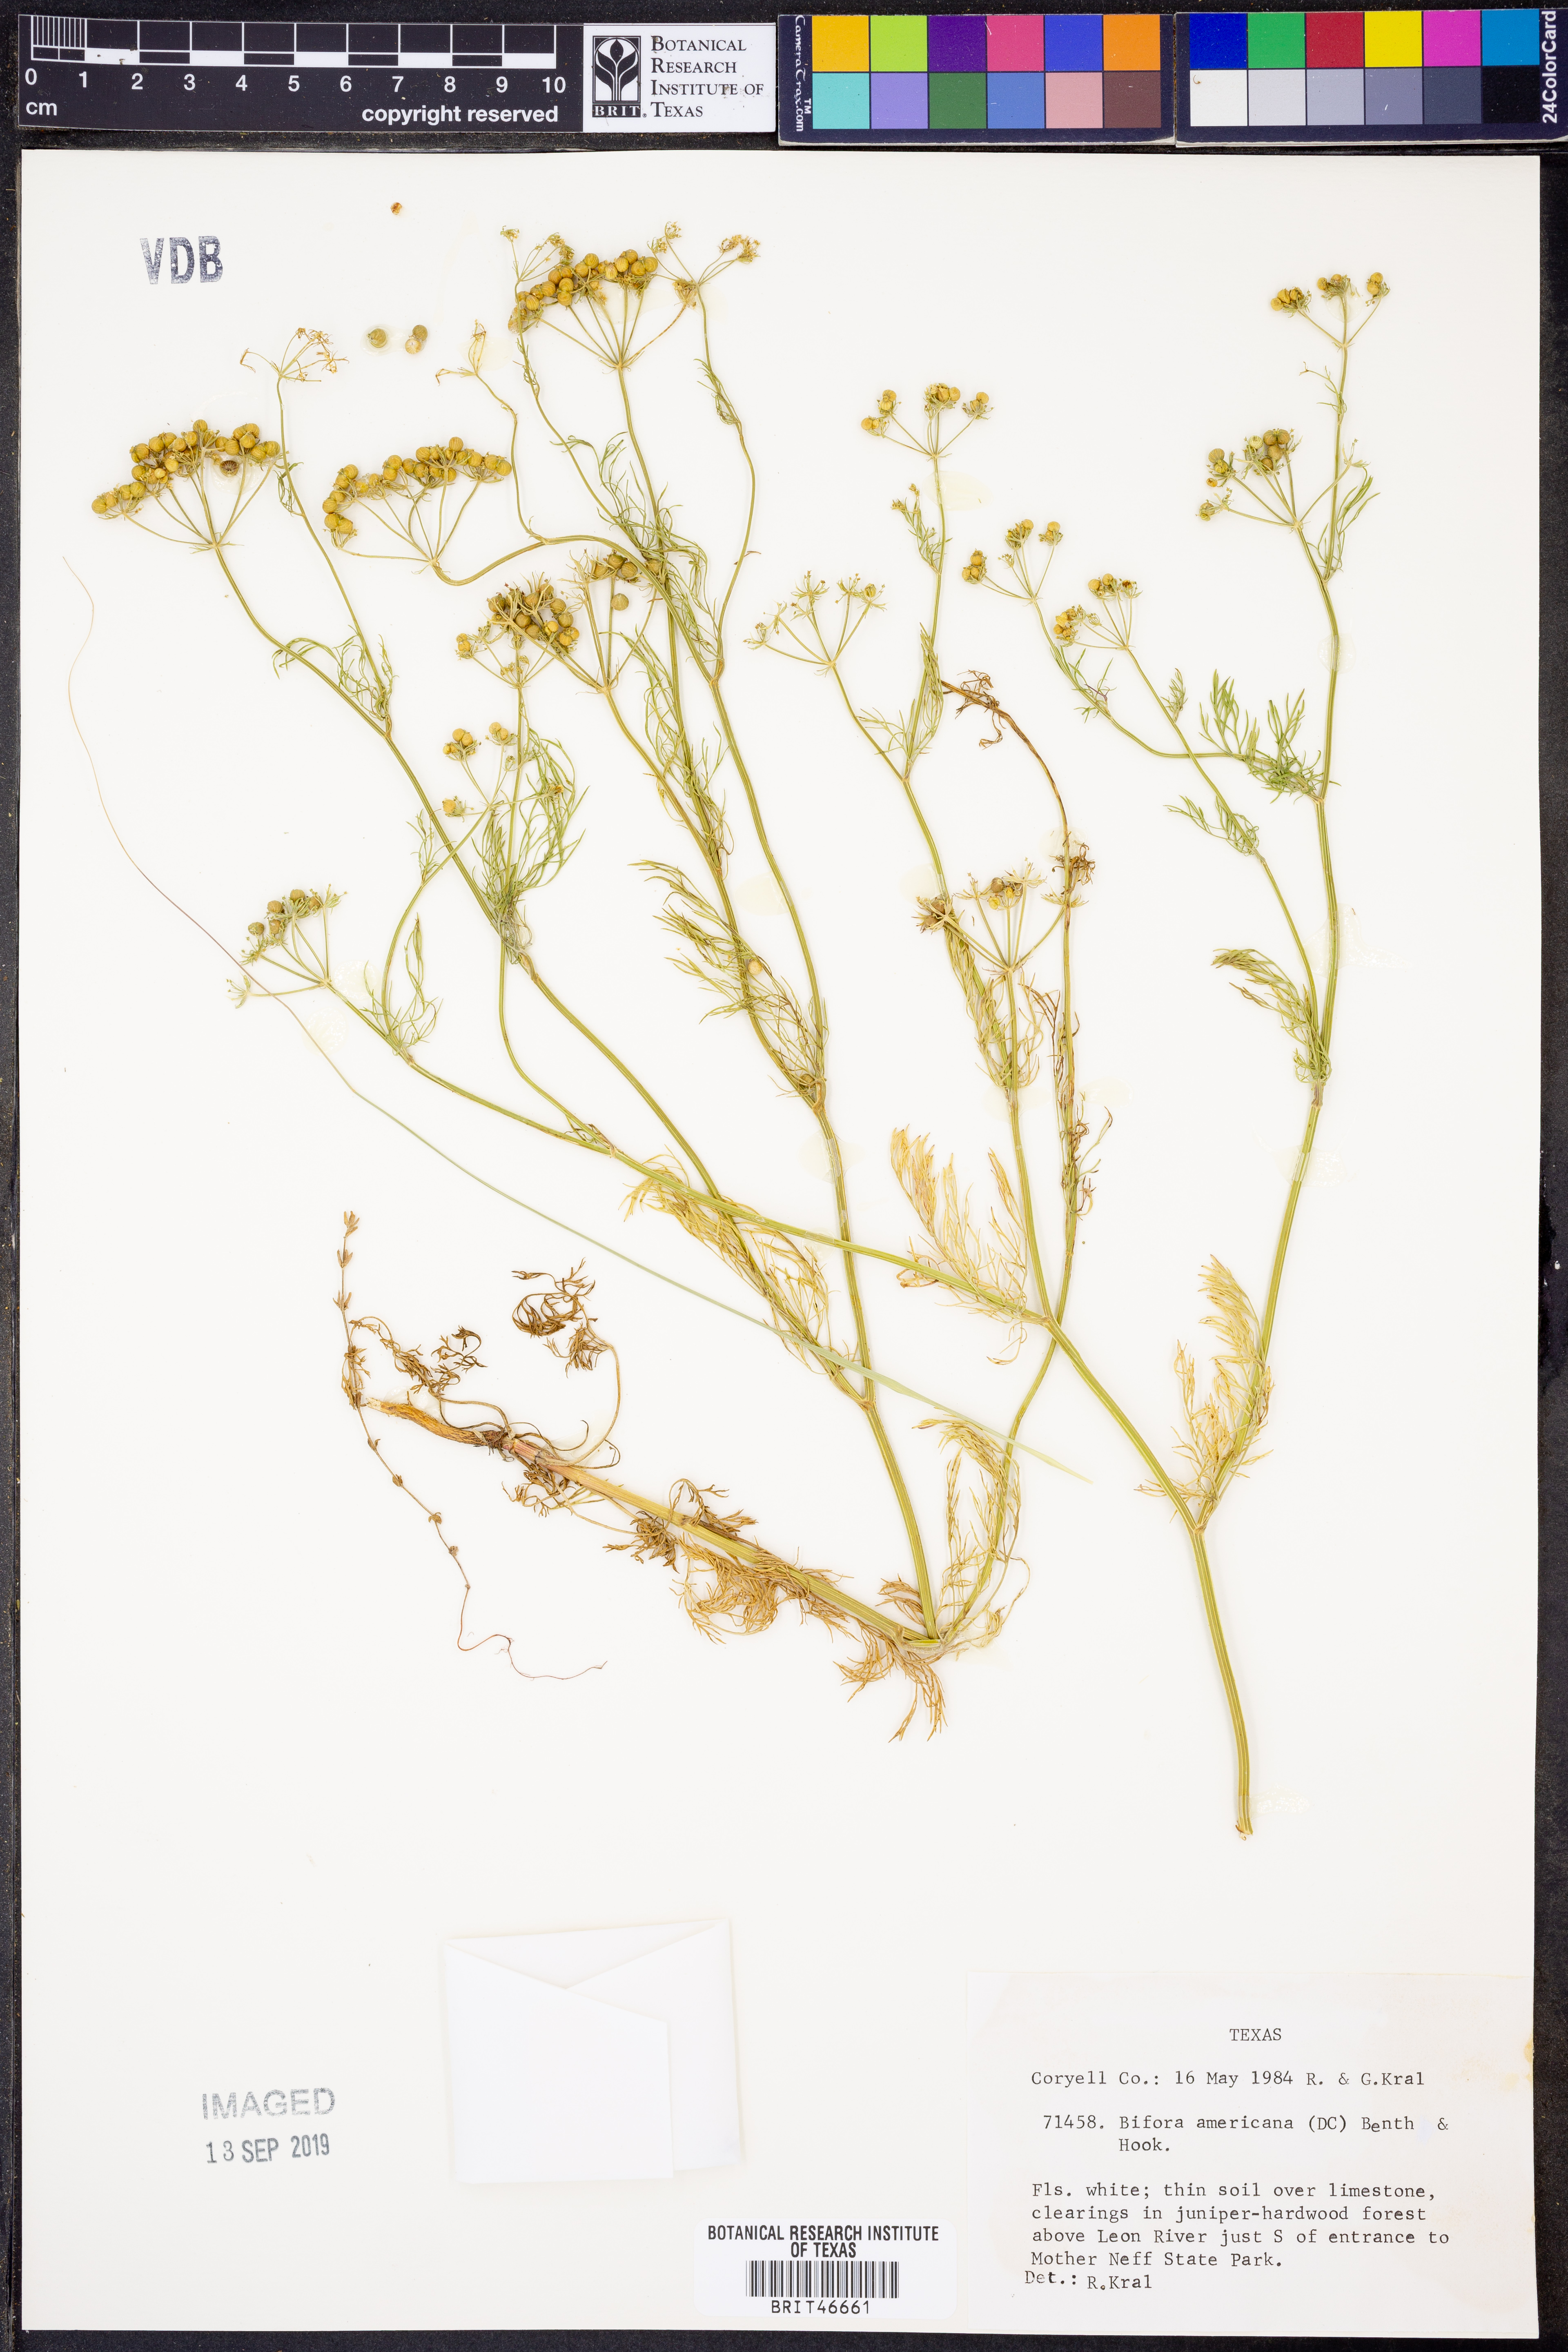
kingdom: Plantae
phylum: Tracheophyta
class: Magnoliopsida
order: Apiales
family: Apiaceae
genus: Atrema
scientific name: Atrema americanum
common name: Prairie-bishop
